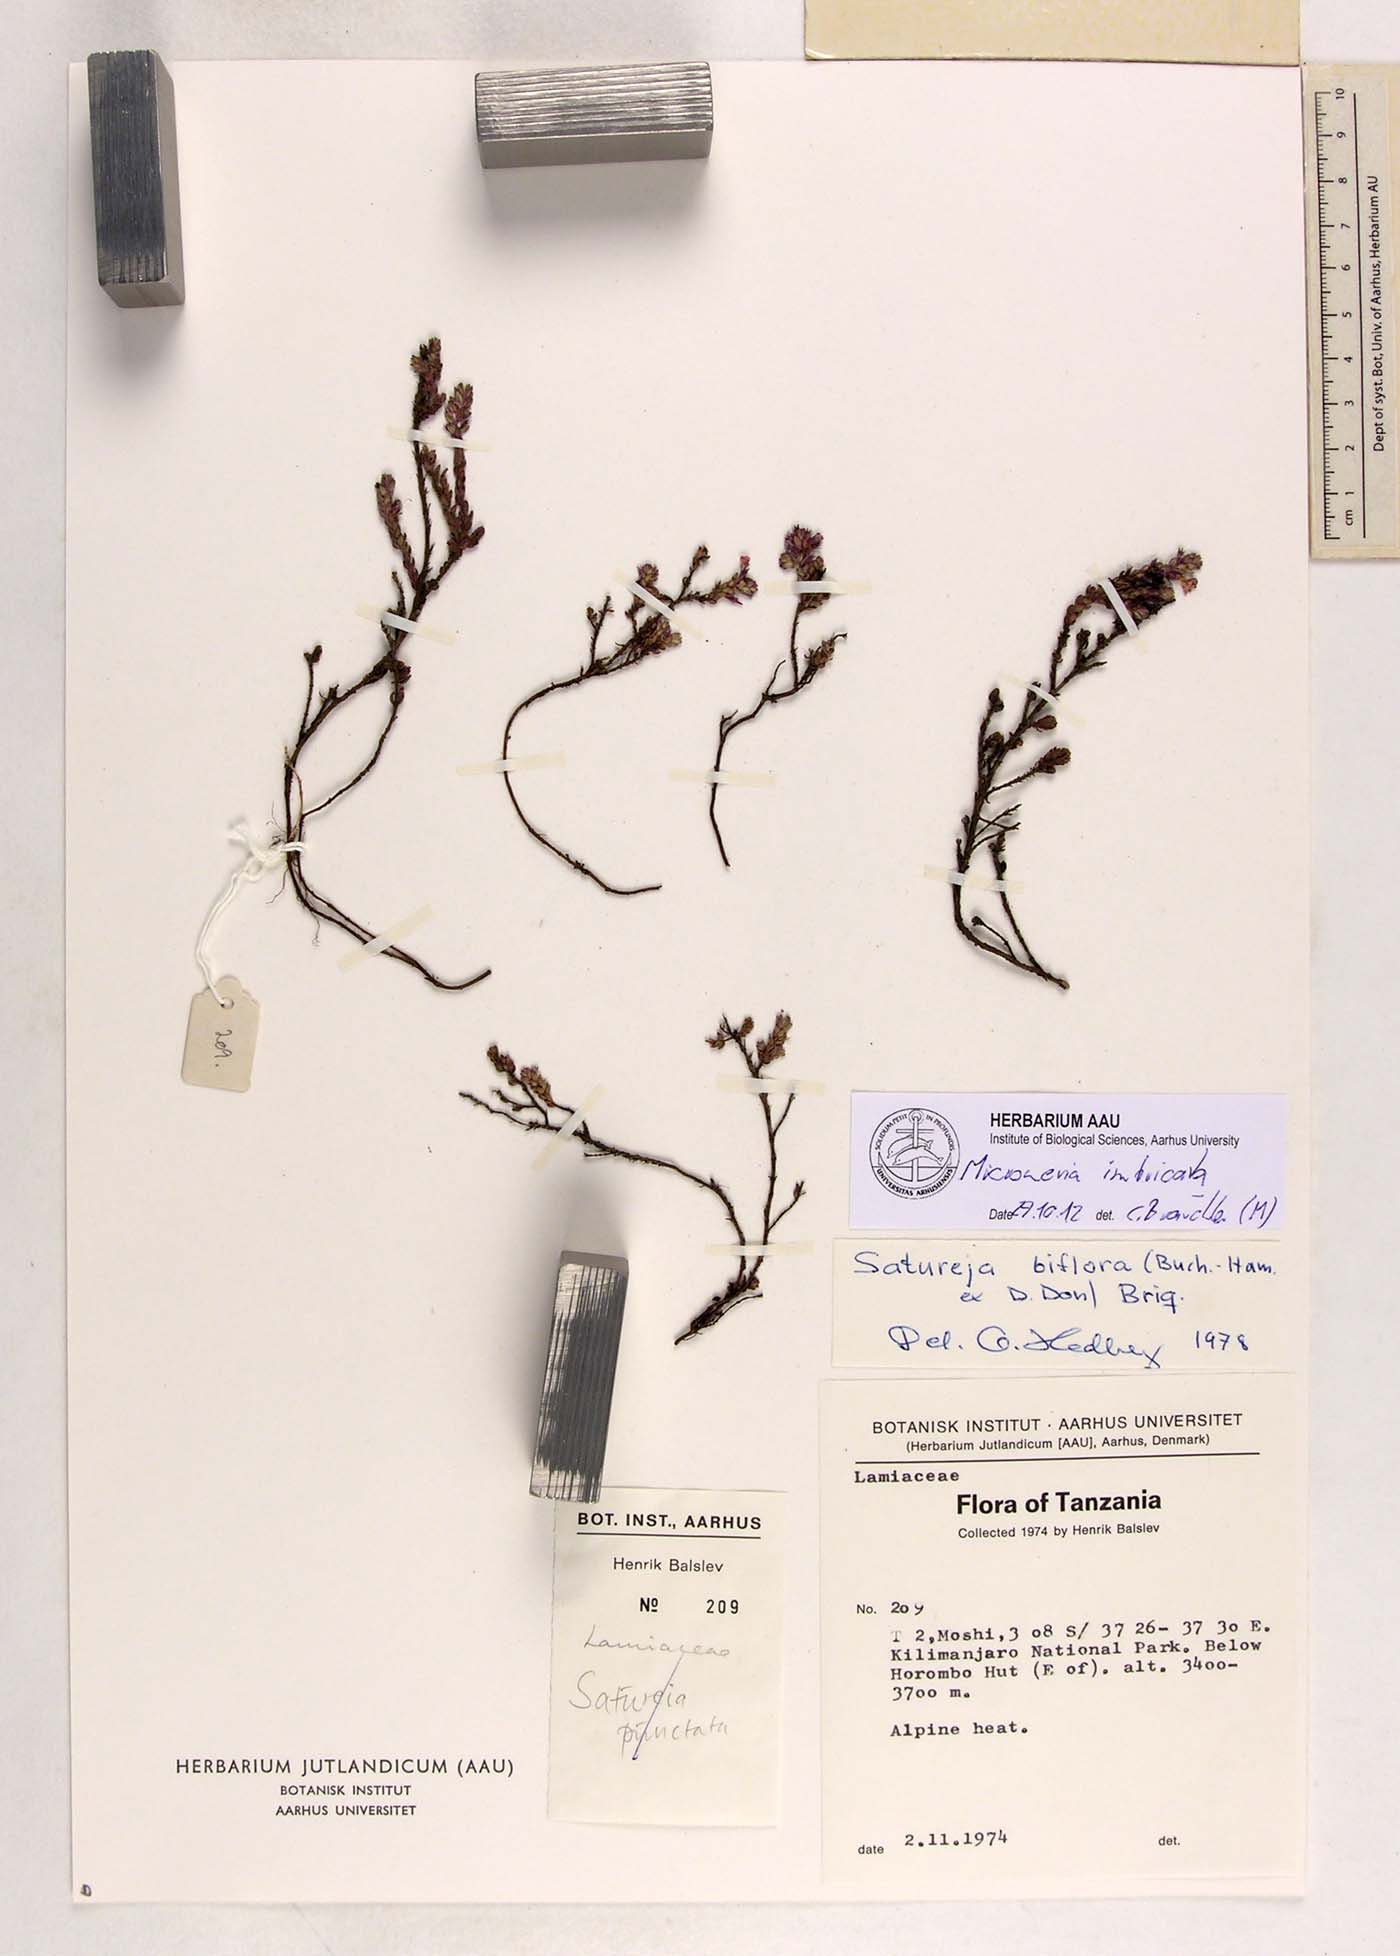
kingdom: Plantae
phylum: Tracheophyta
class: Magnoliopsida
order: Lamiales
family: Lamiaceae
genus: Micromeria
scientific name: Micromeria imbricata
